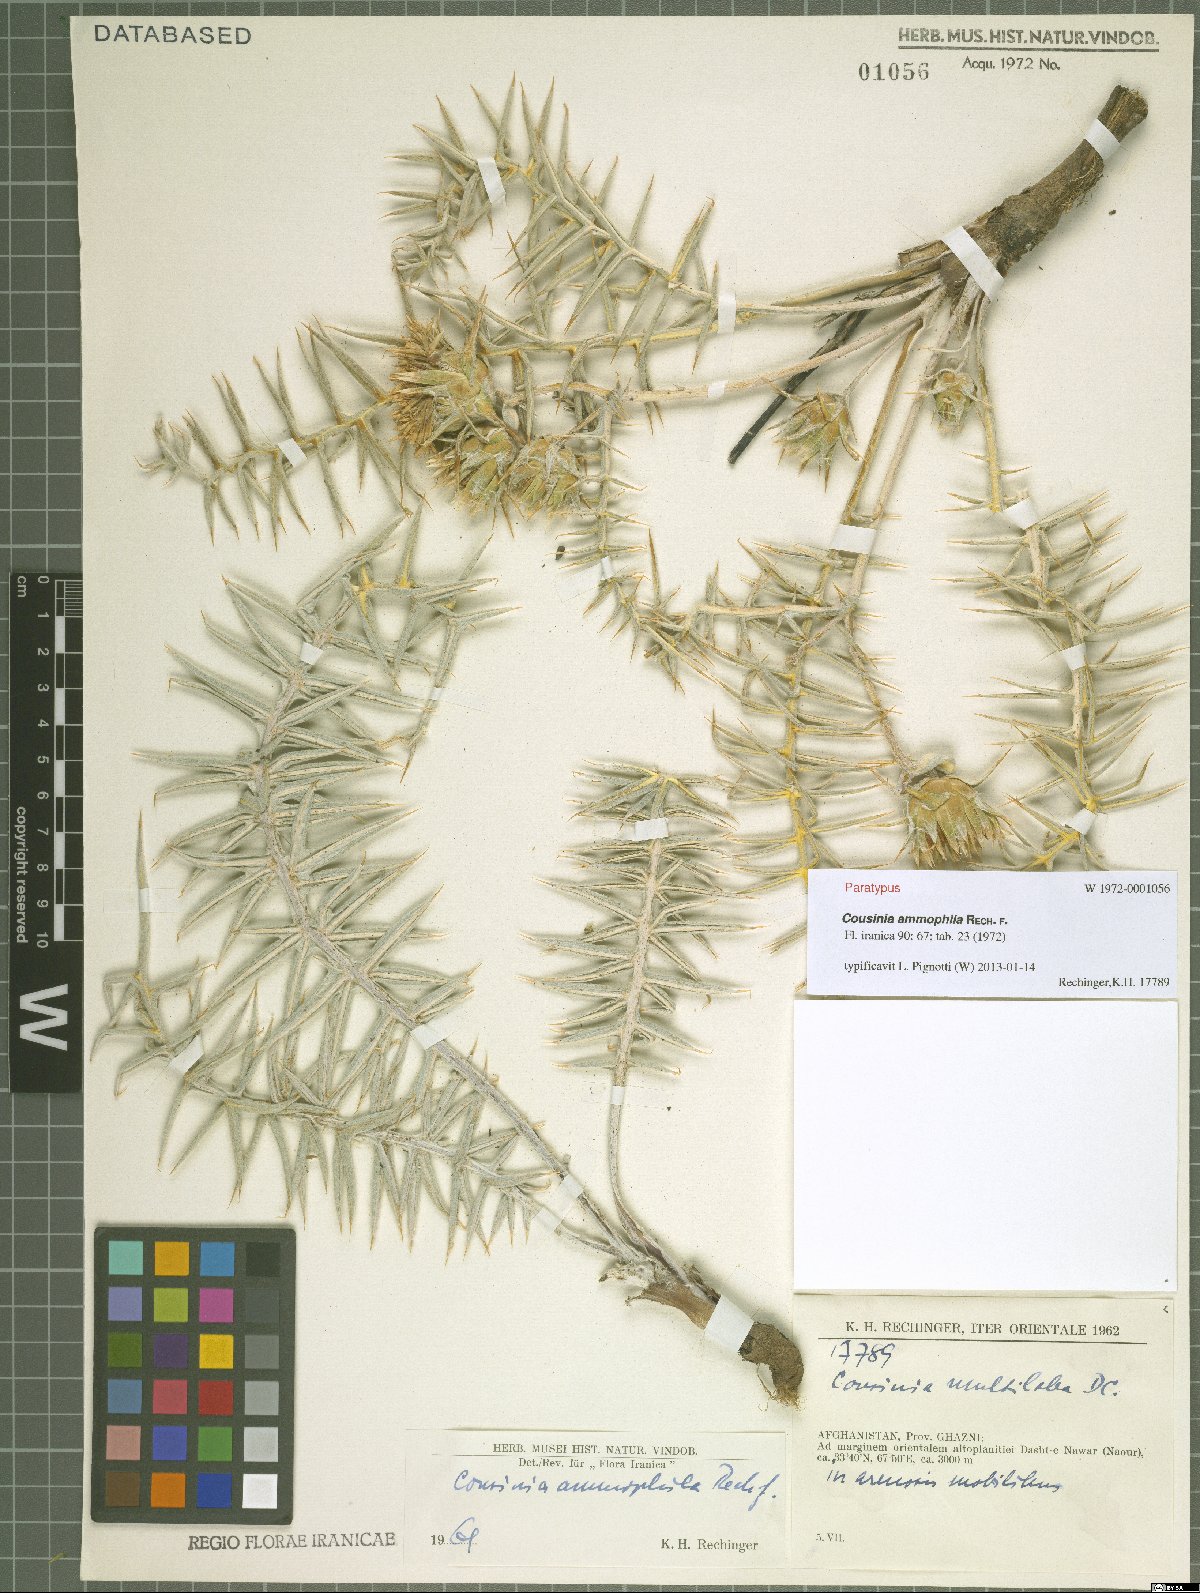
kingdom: Plantae
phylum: Tracheophyta
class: Magnoliopsida
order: Asterales
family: Asteraceae
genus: Cousinia
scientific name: Cousinia ammophila
